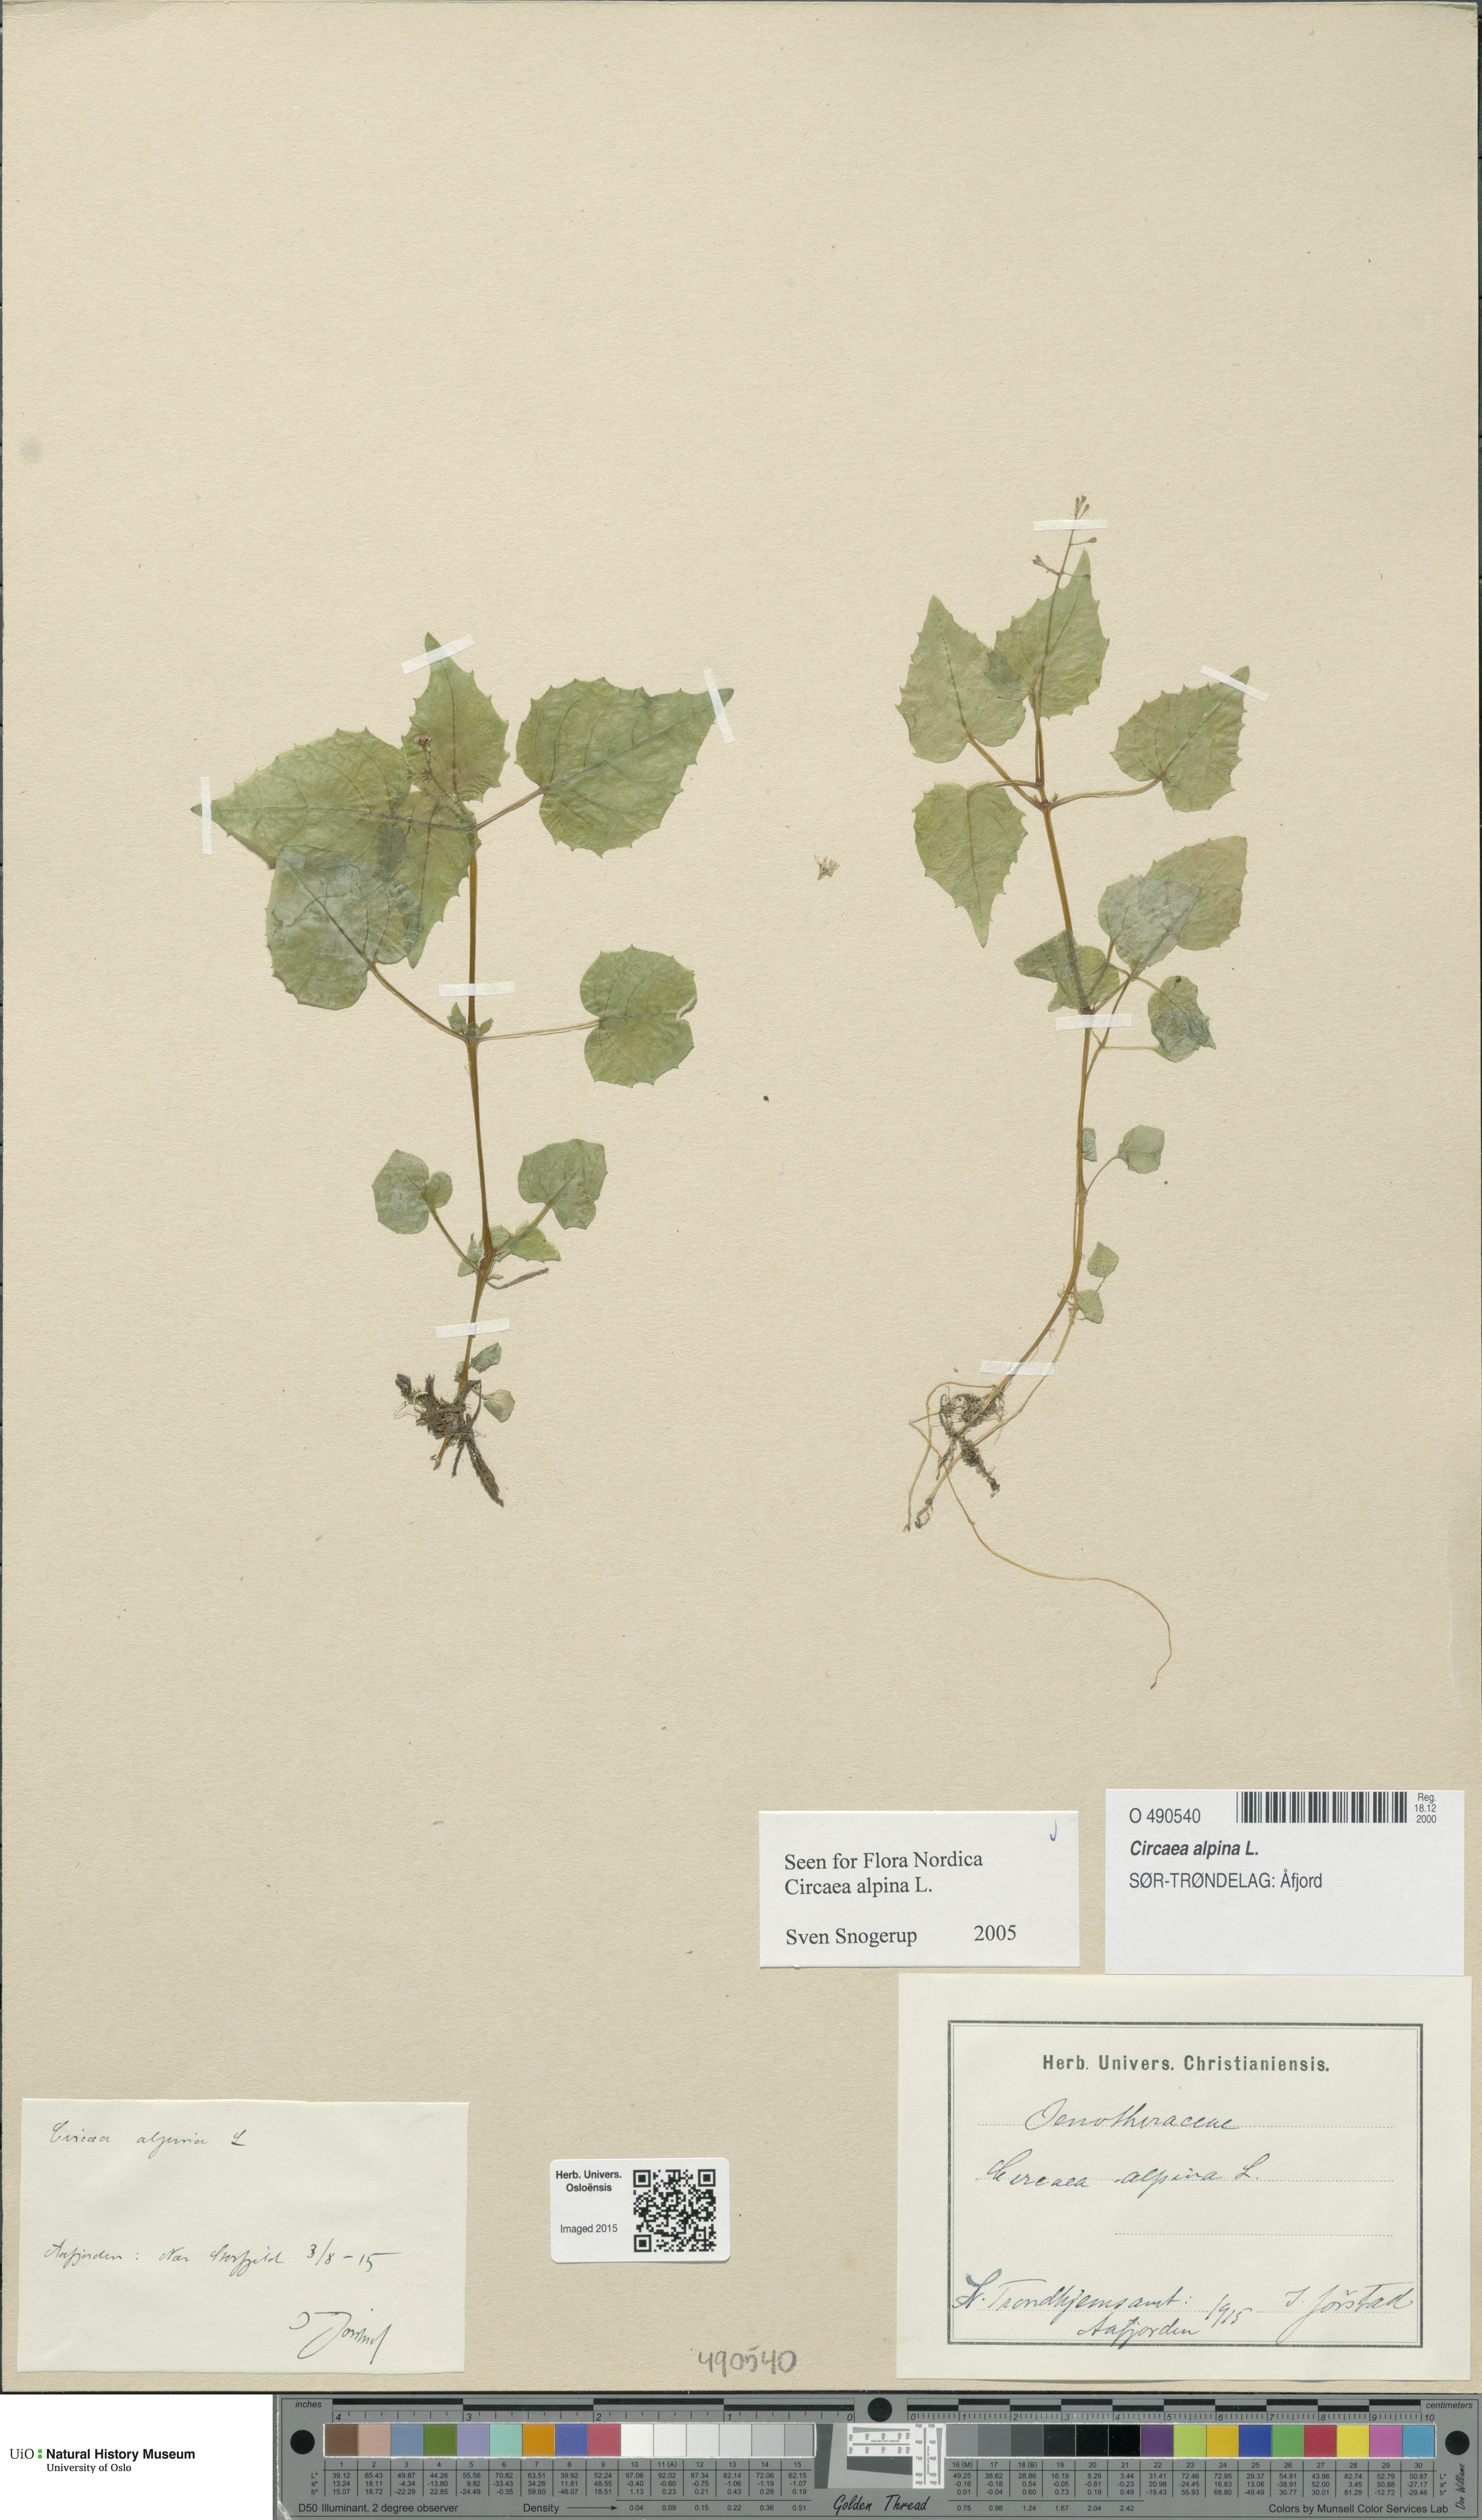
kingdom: Plantae
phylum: Tracheophyta
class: Magnoliopsida
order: Myrtales
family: Onagraceae
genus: Circaea
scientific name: Circaea alpina
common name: Alpine enchanter's-nightshade
